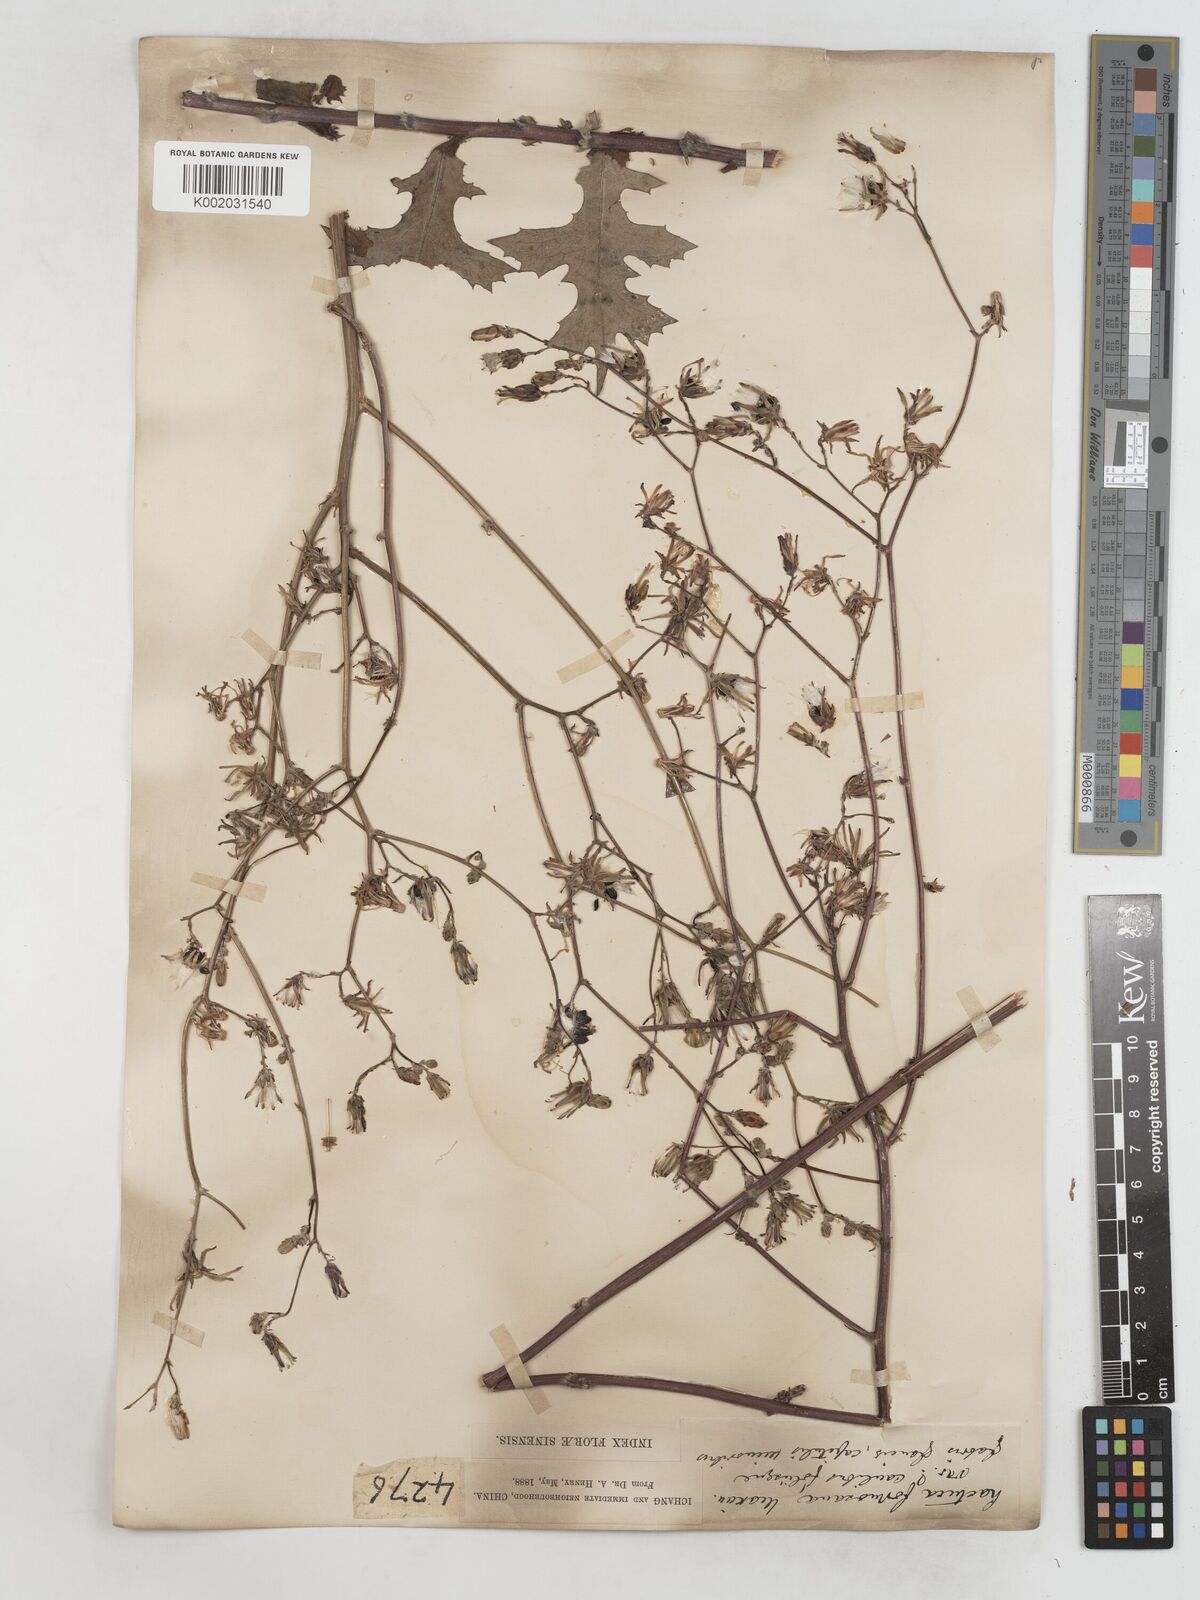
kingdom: Plantae
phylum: Tracheophyta
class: Magnoliopsida
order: Asterales
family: Asteraceae
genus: Lactuca
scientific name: Lactuca formosana
